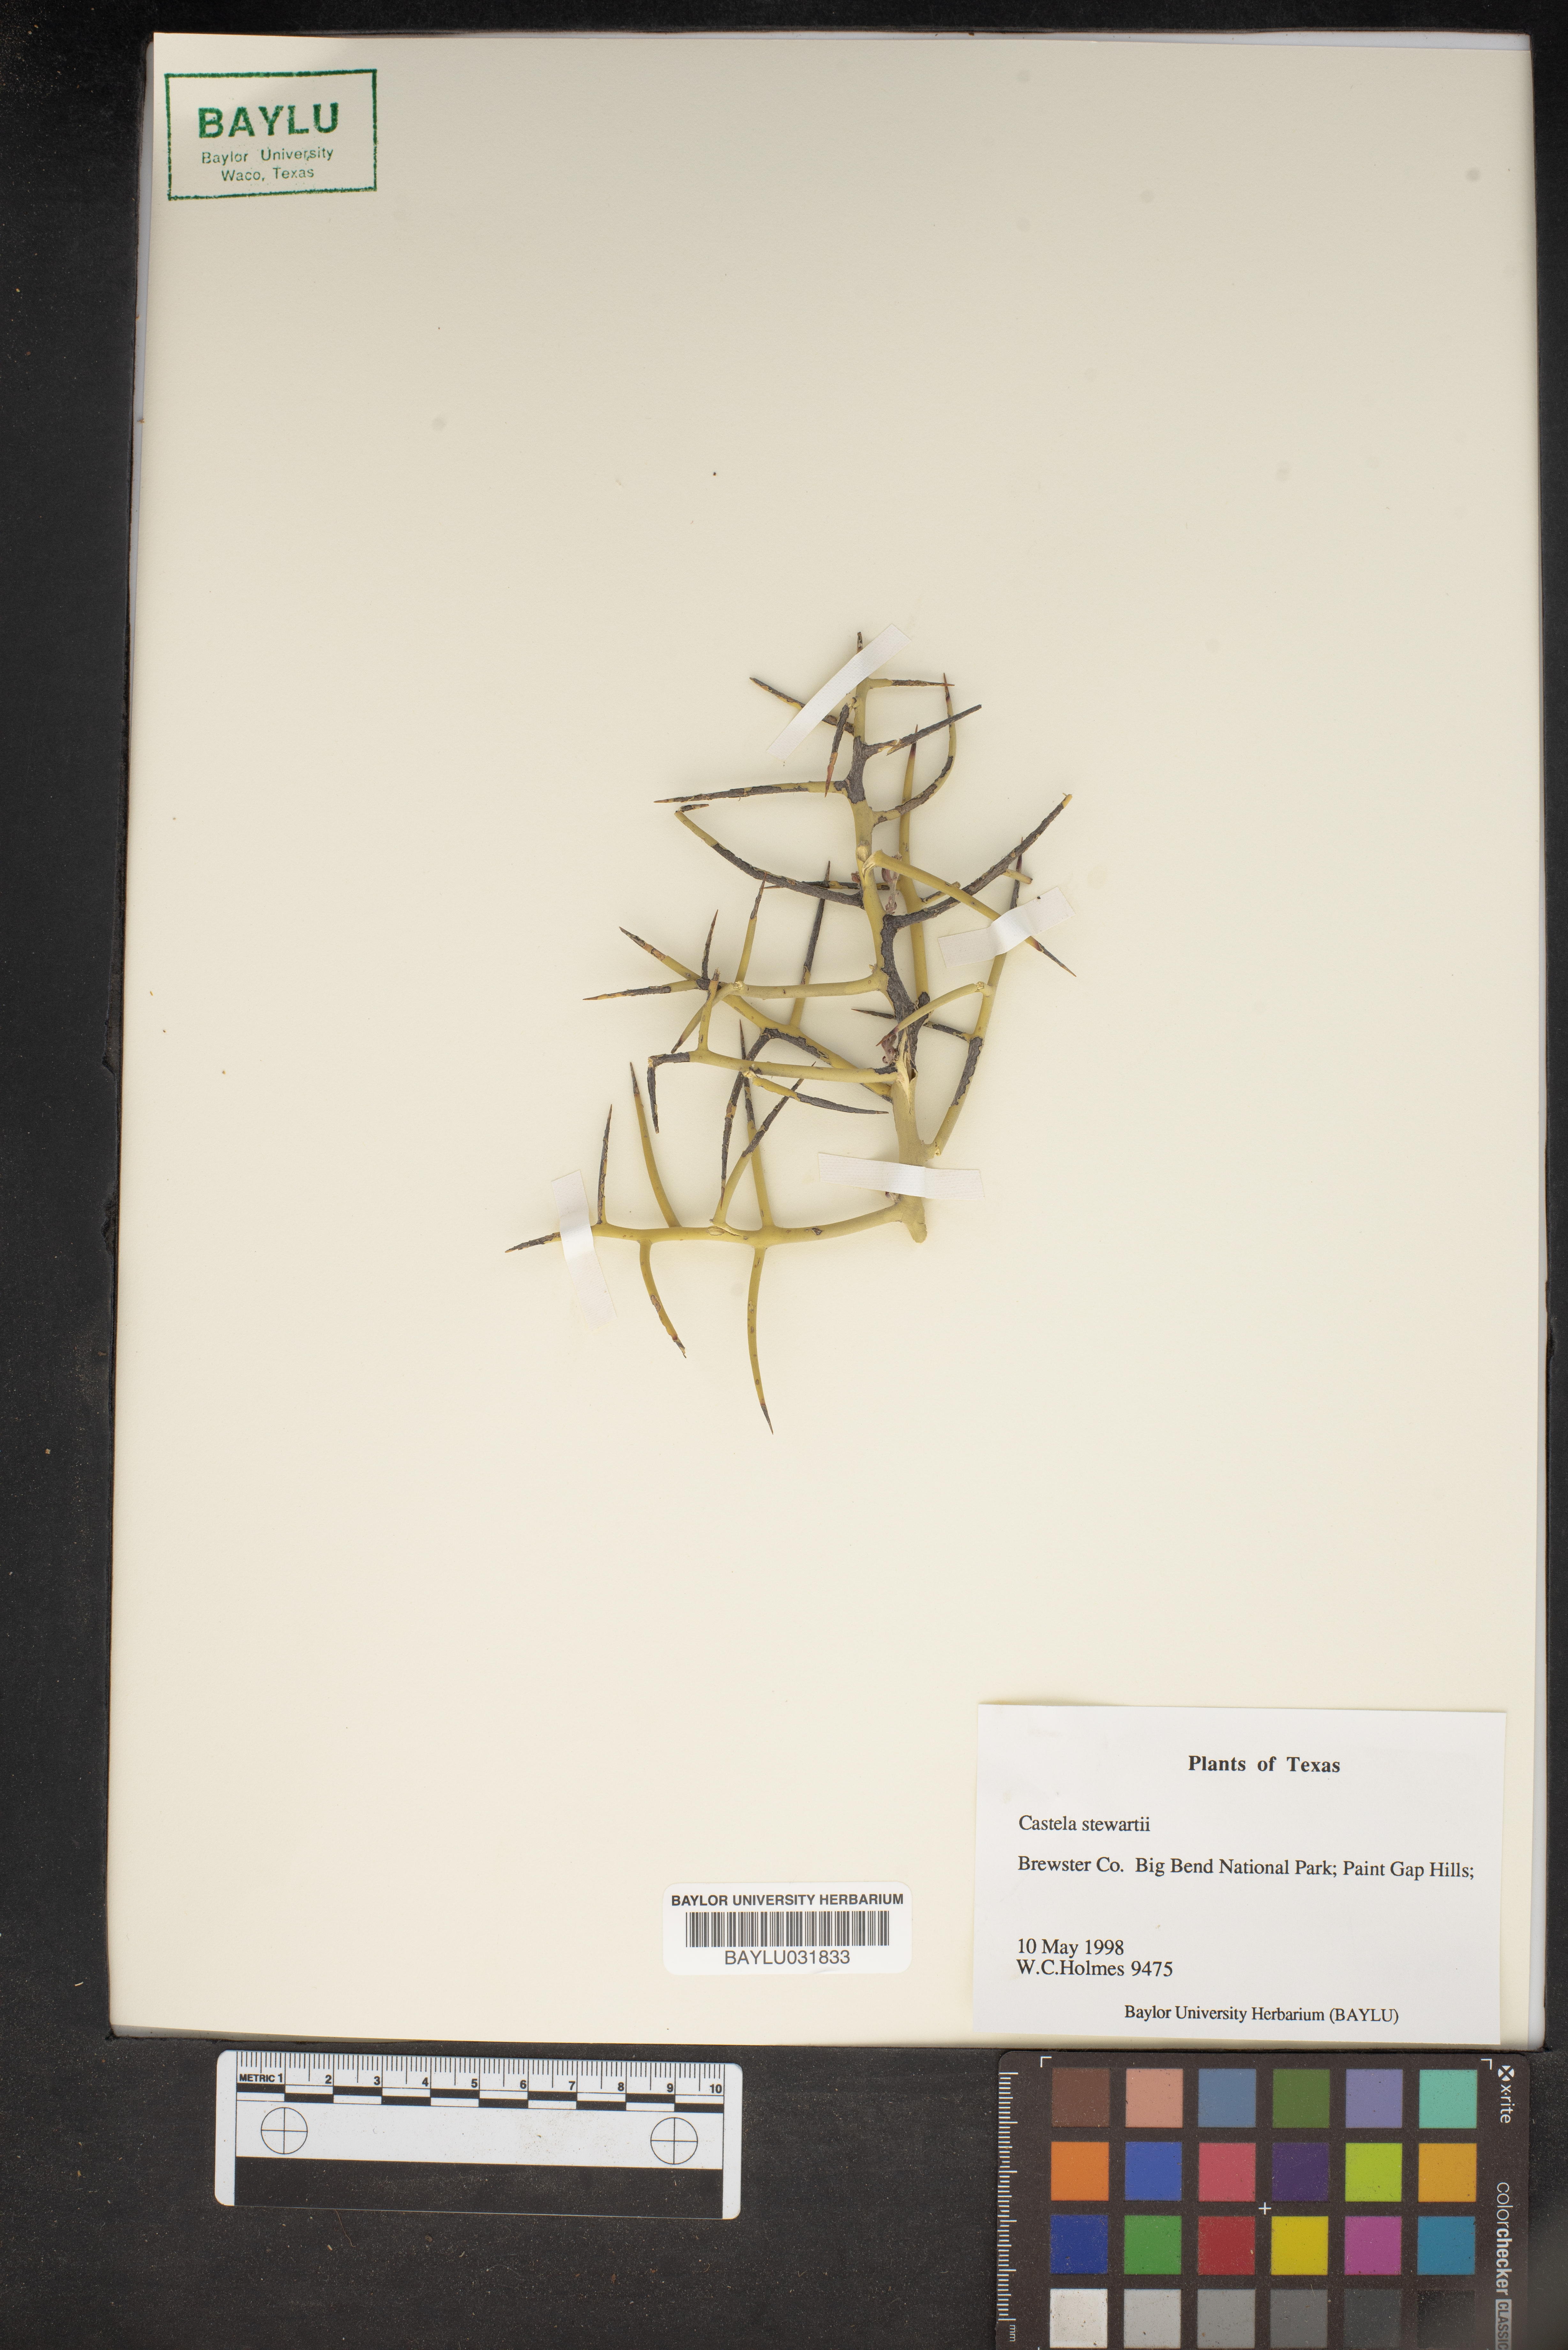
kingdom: Plantae
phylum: Tracheophyta
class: Magnoliopsida
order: Sapindales
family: Simaroubaceae
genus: Holacantha
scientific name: Holacantha stewartii
